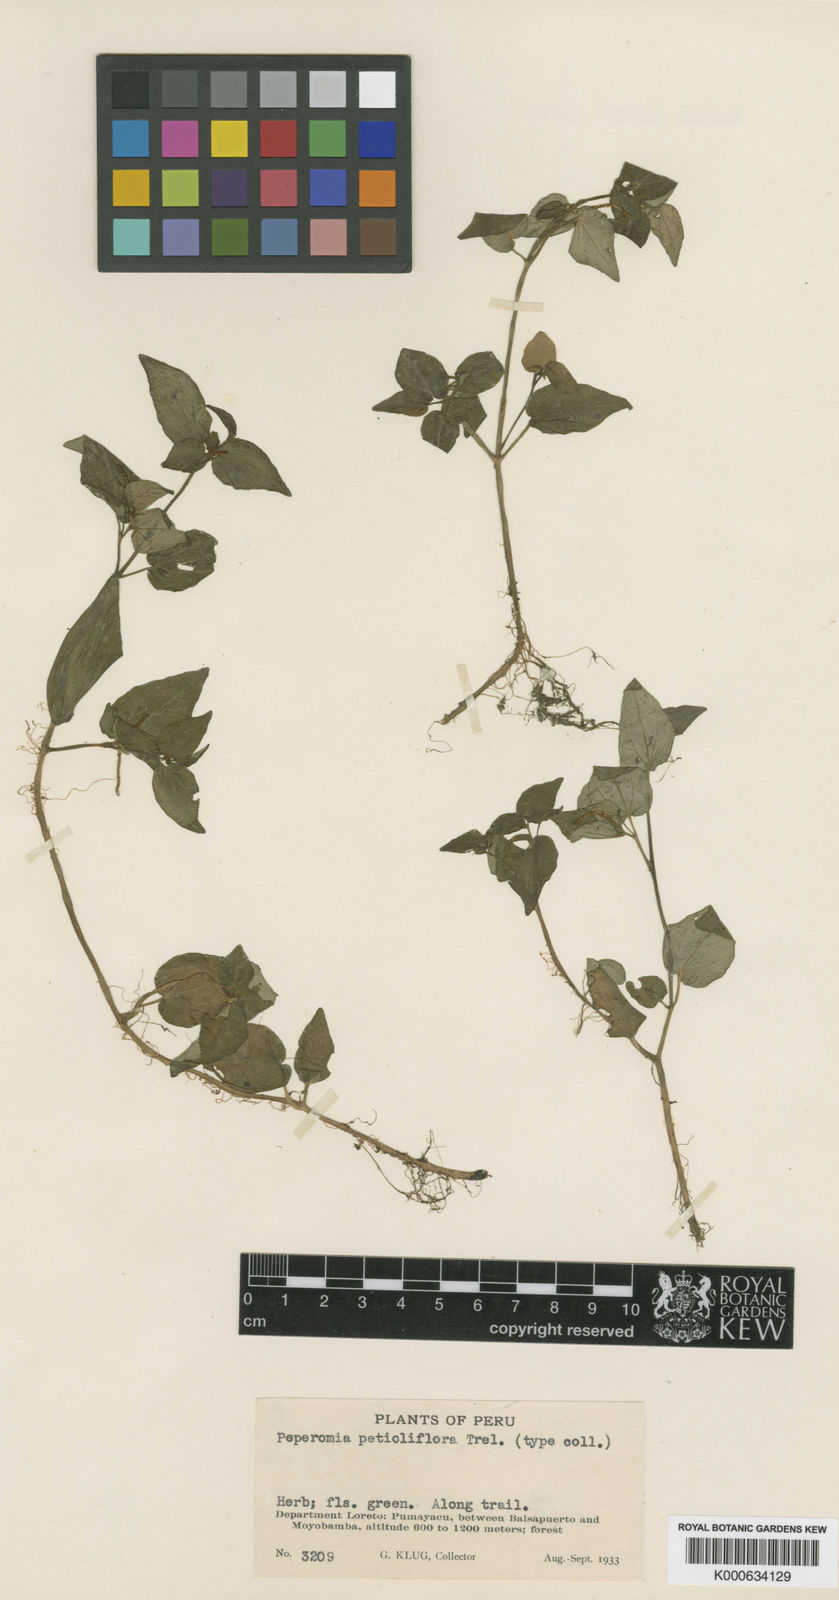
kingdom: Plantae
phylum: Tracheophyta
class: Magnoliopsida
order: Piperales
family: Piperaceae
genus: Peperomia
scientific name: Peperomia
